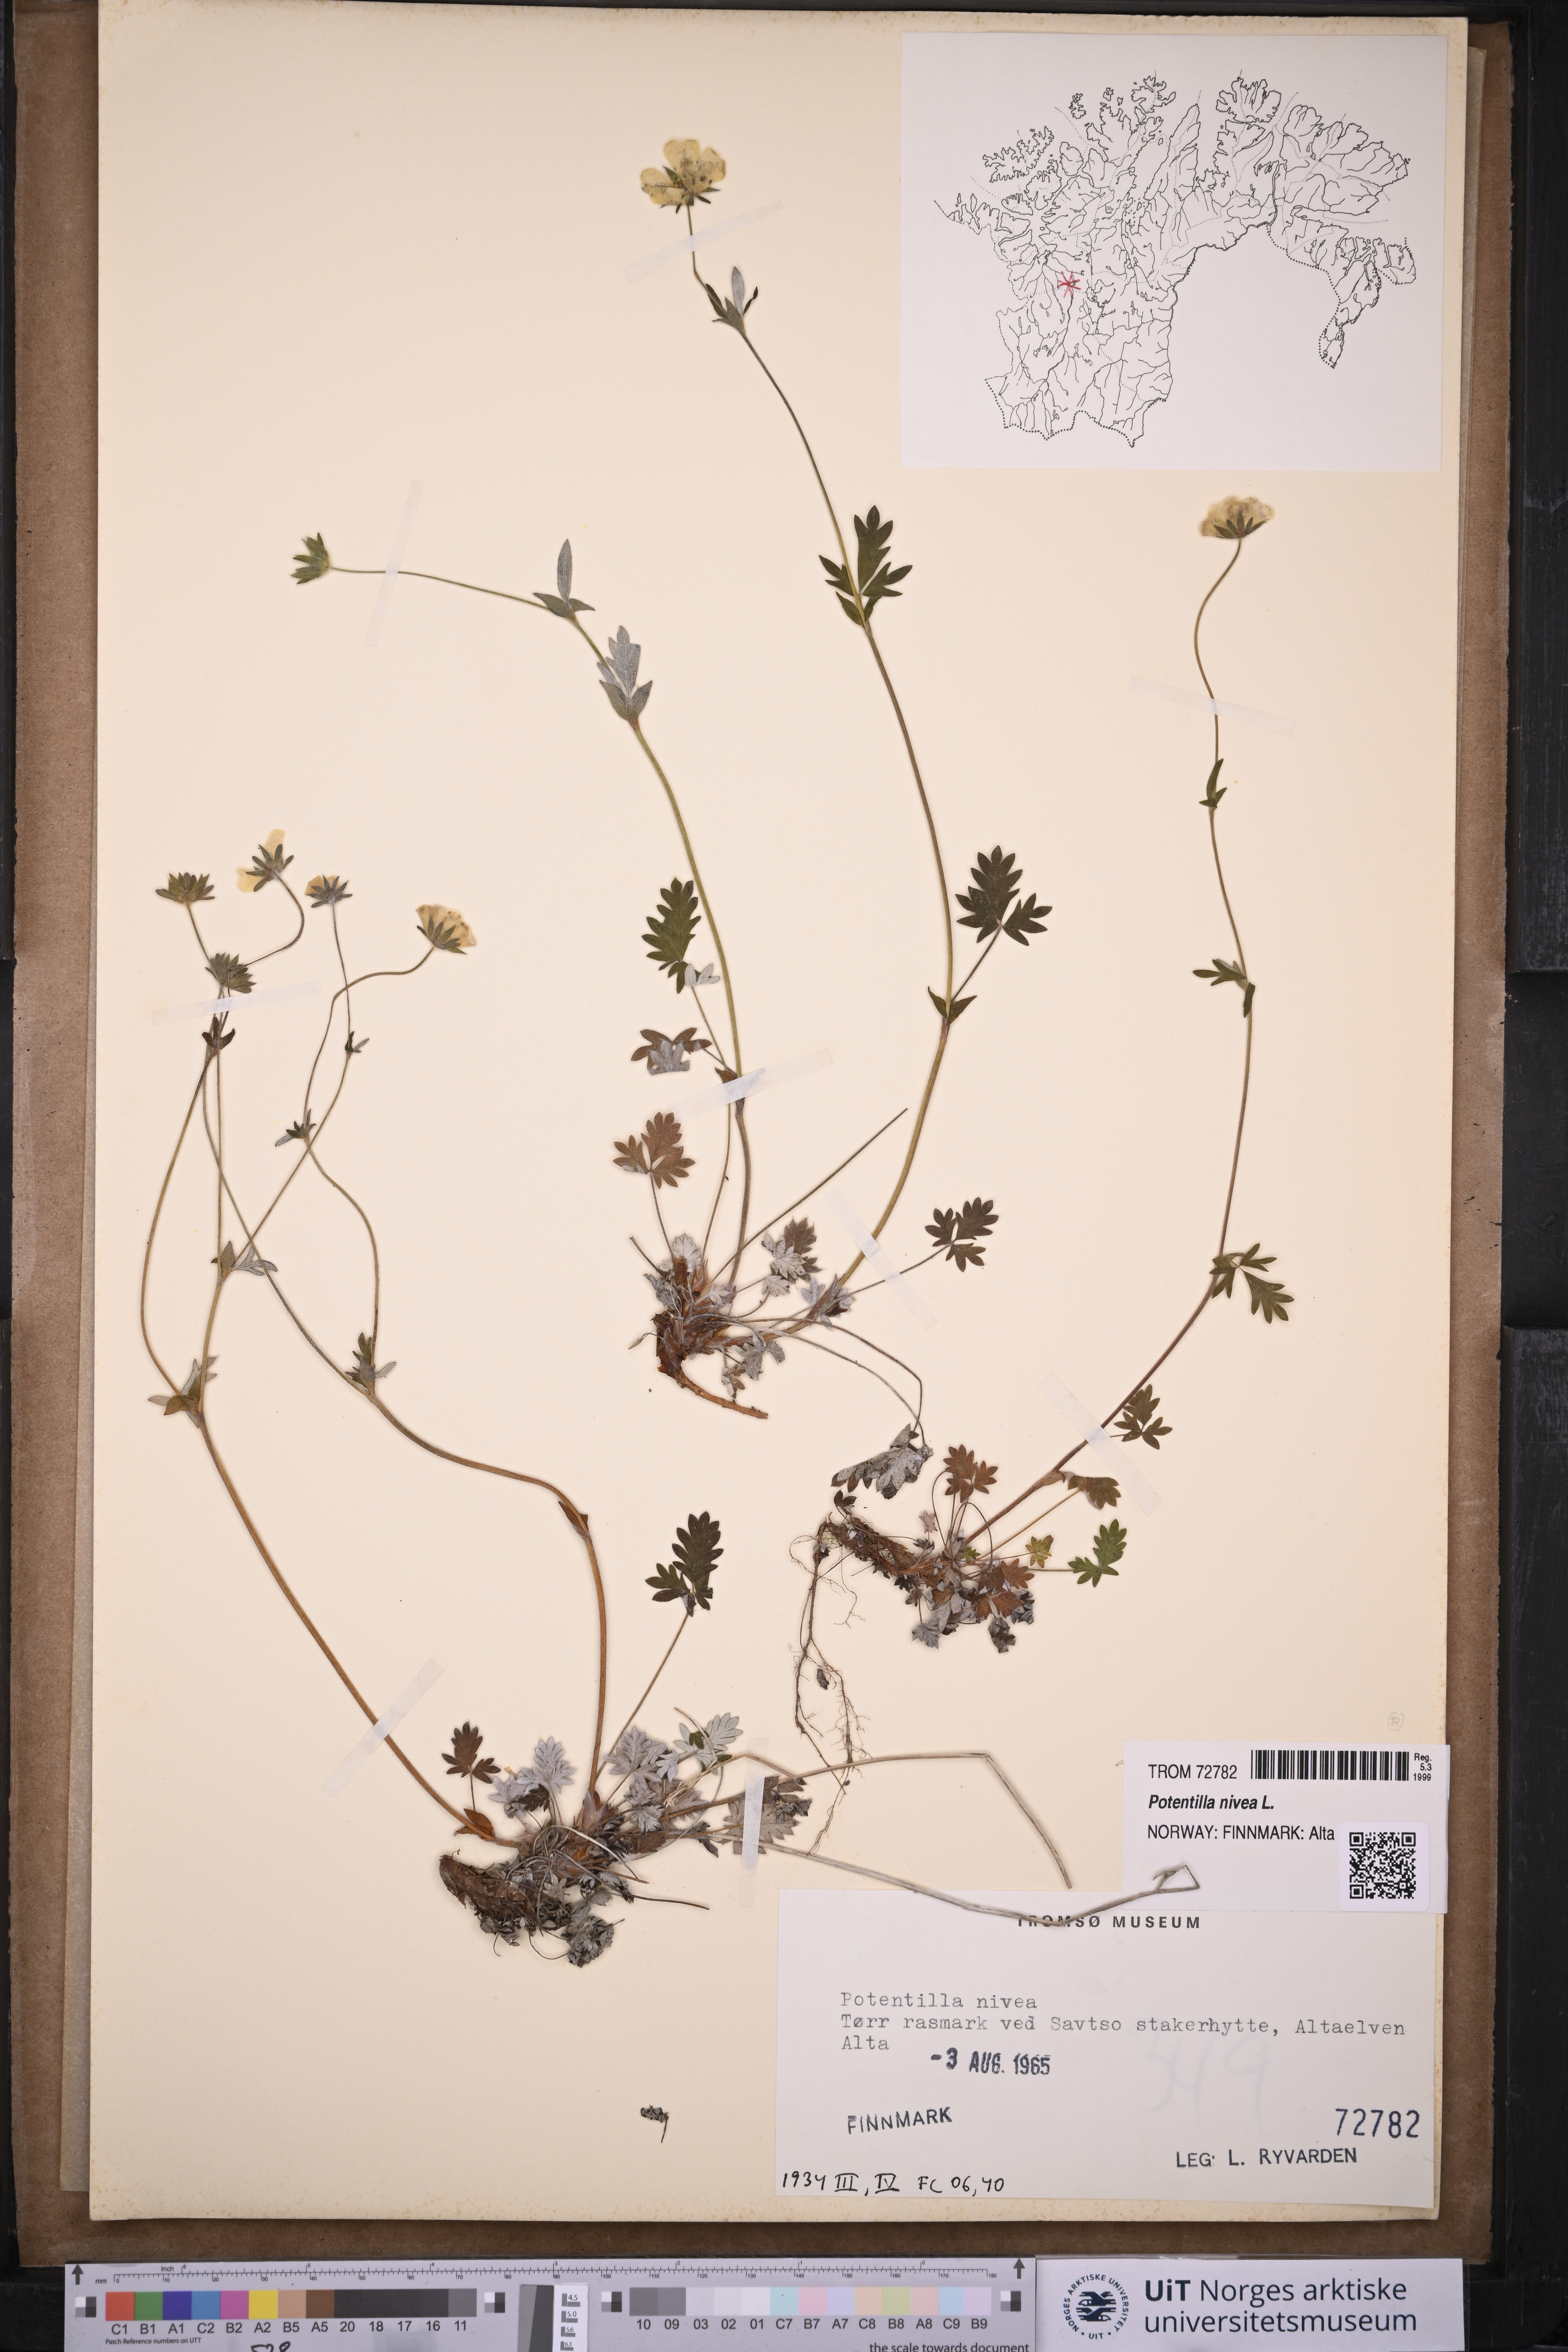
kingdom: Plantae
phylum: Tracheophyta
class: Magnoliopsida
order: Rosales
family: Rosaceae
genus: Potentilla
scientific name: Potentilla arenosa
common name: Bluff cinquefoil
